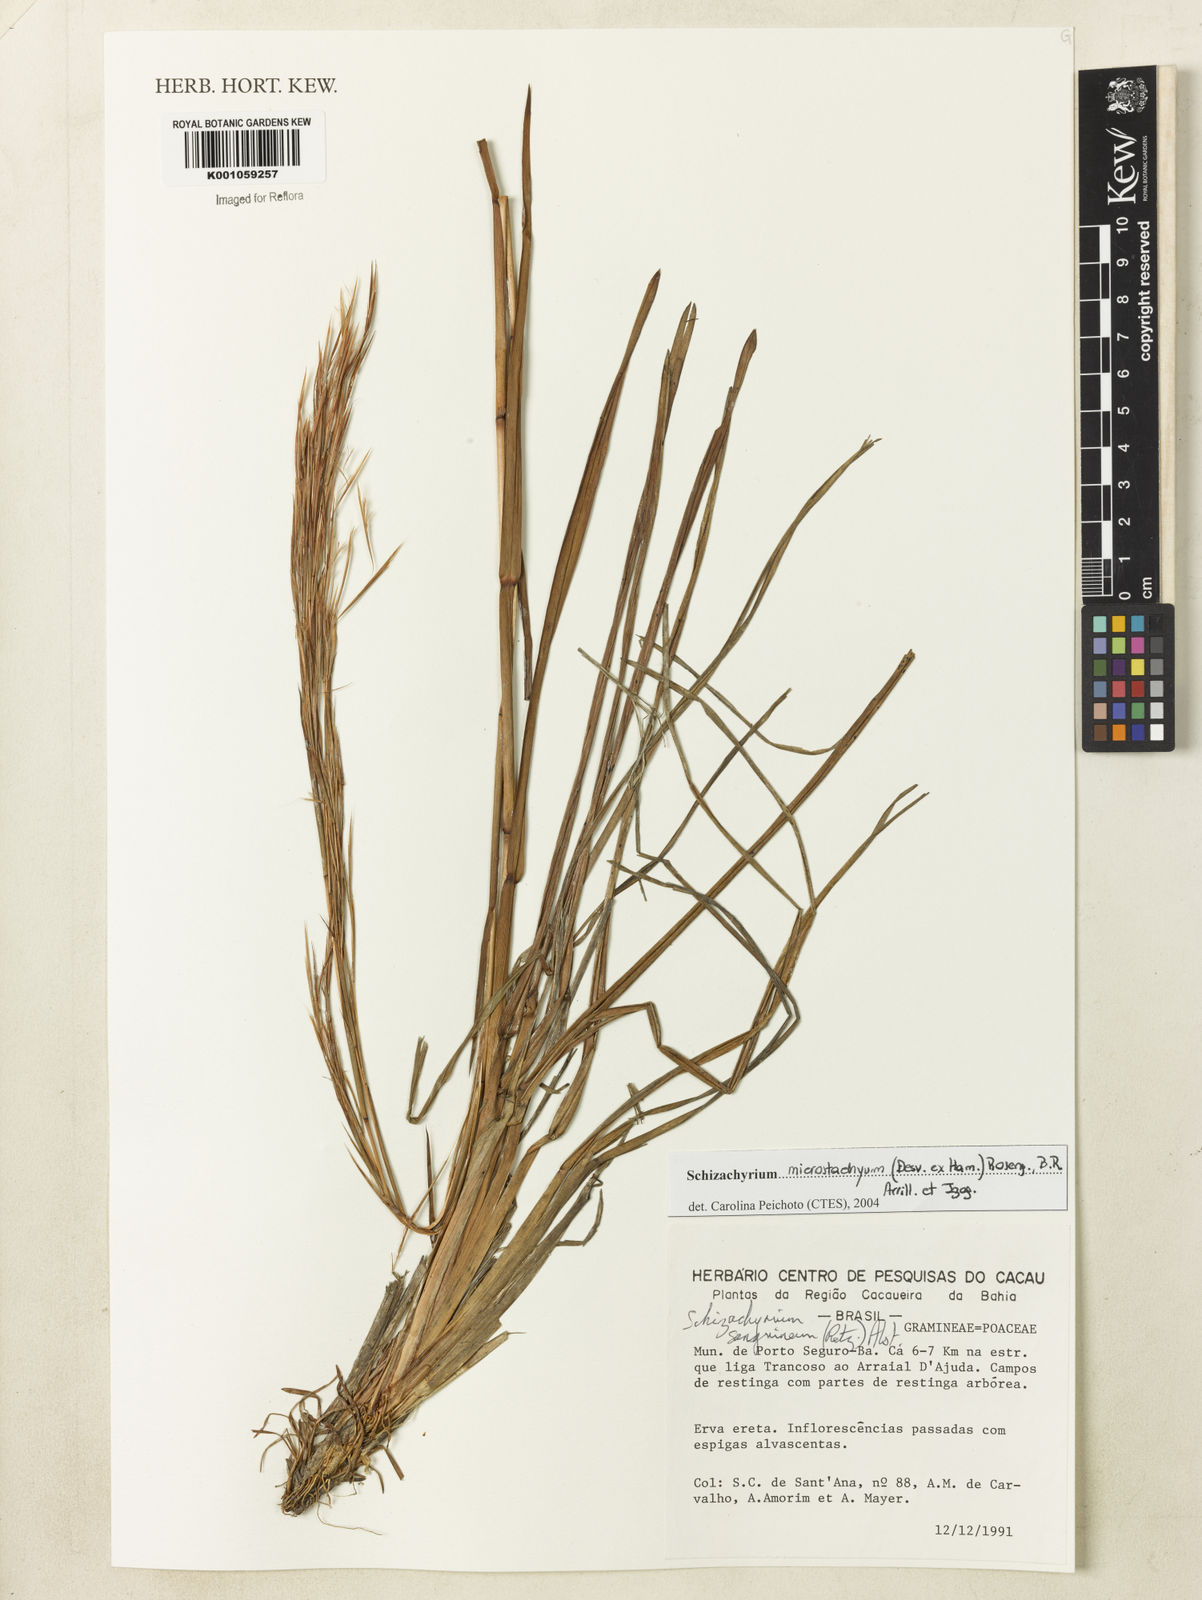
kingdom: Plantae
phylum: Tracheophyta
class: Liliopsida
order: Poales
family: Poaceae
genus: Schizachyrium
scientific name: Schizachyrium
